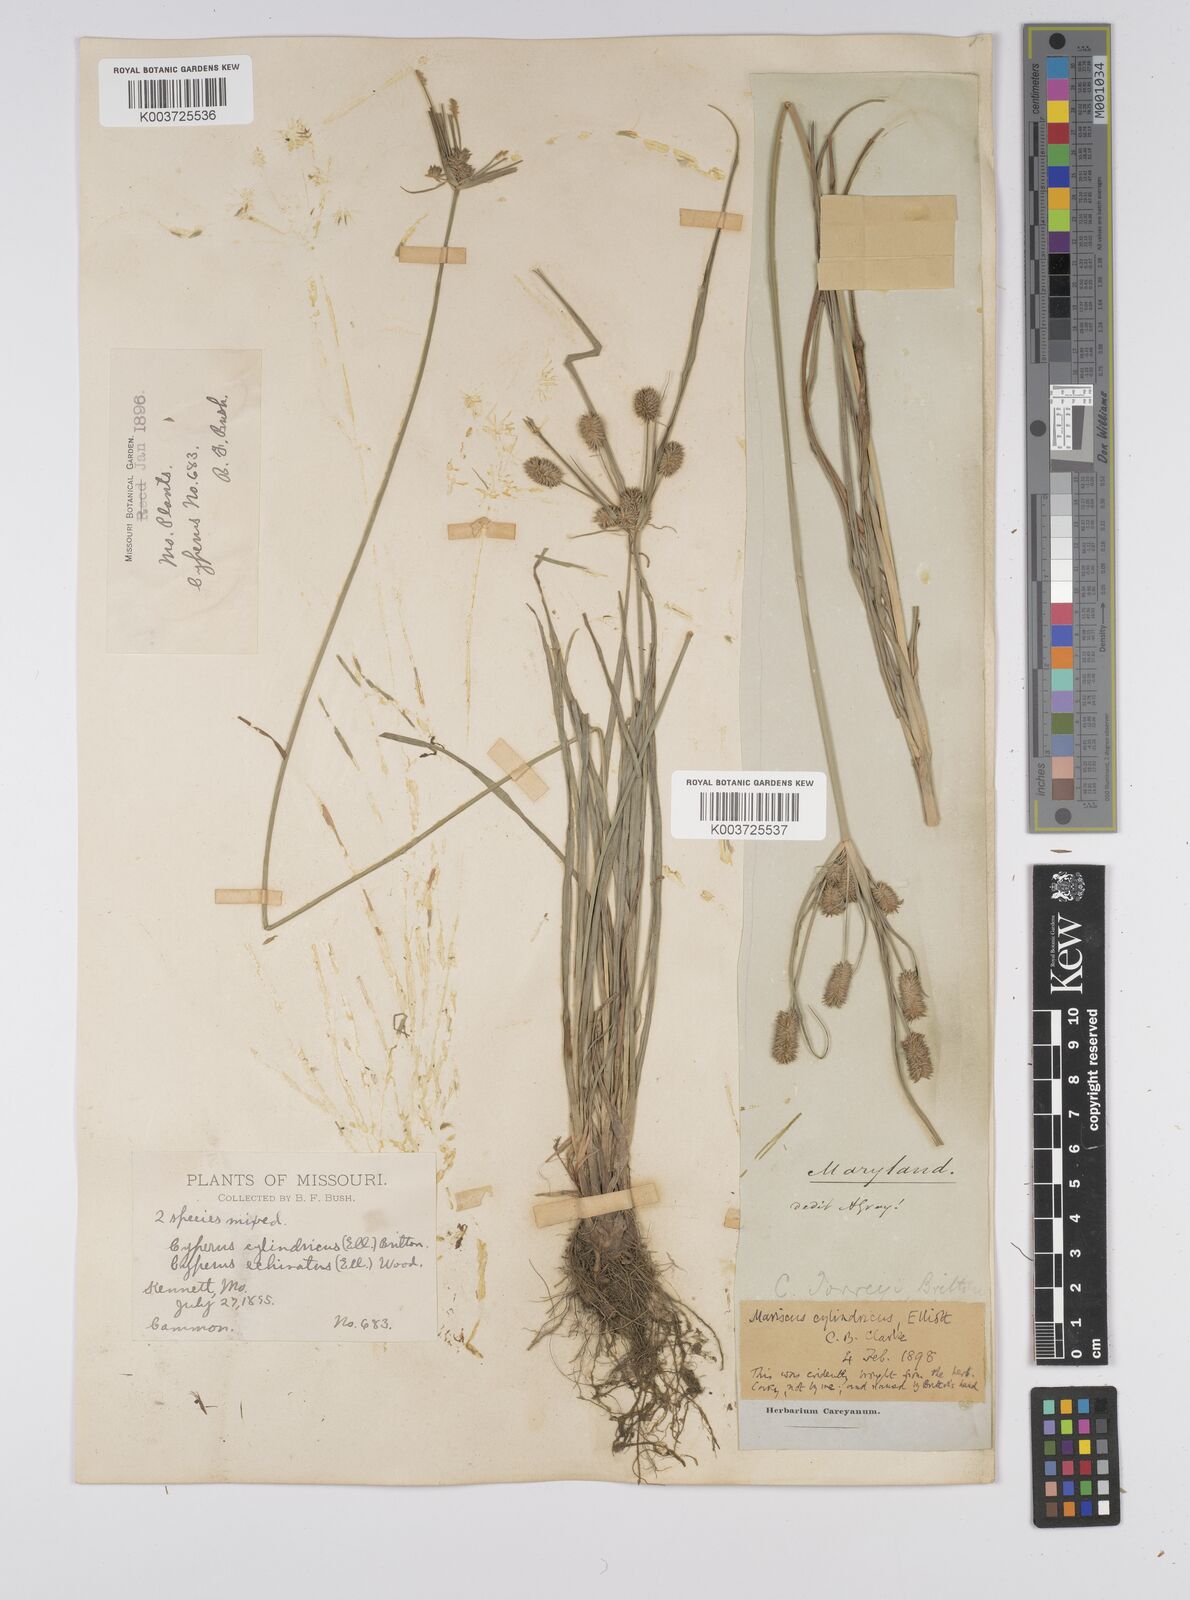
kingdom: Plantae
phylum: Tracheophyta
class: Liliopsida
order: Poales
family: Cyperaceae
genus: Cyperus
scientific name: Cyperus retrorsus
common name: Pinebarren flat sedge
